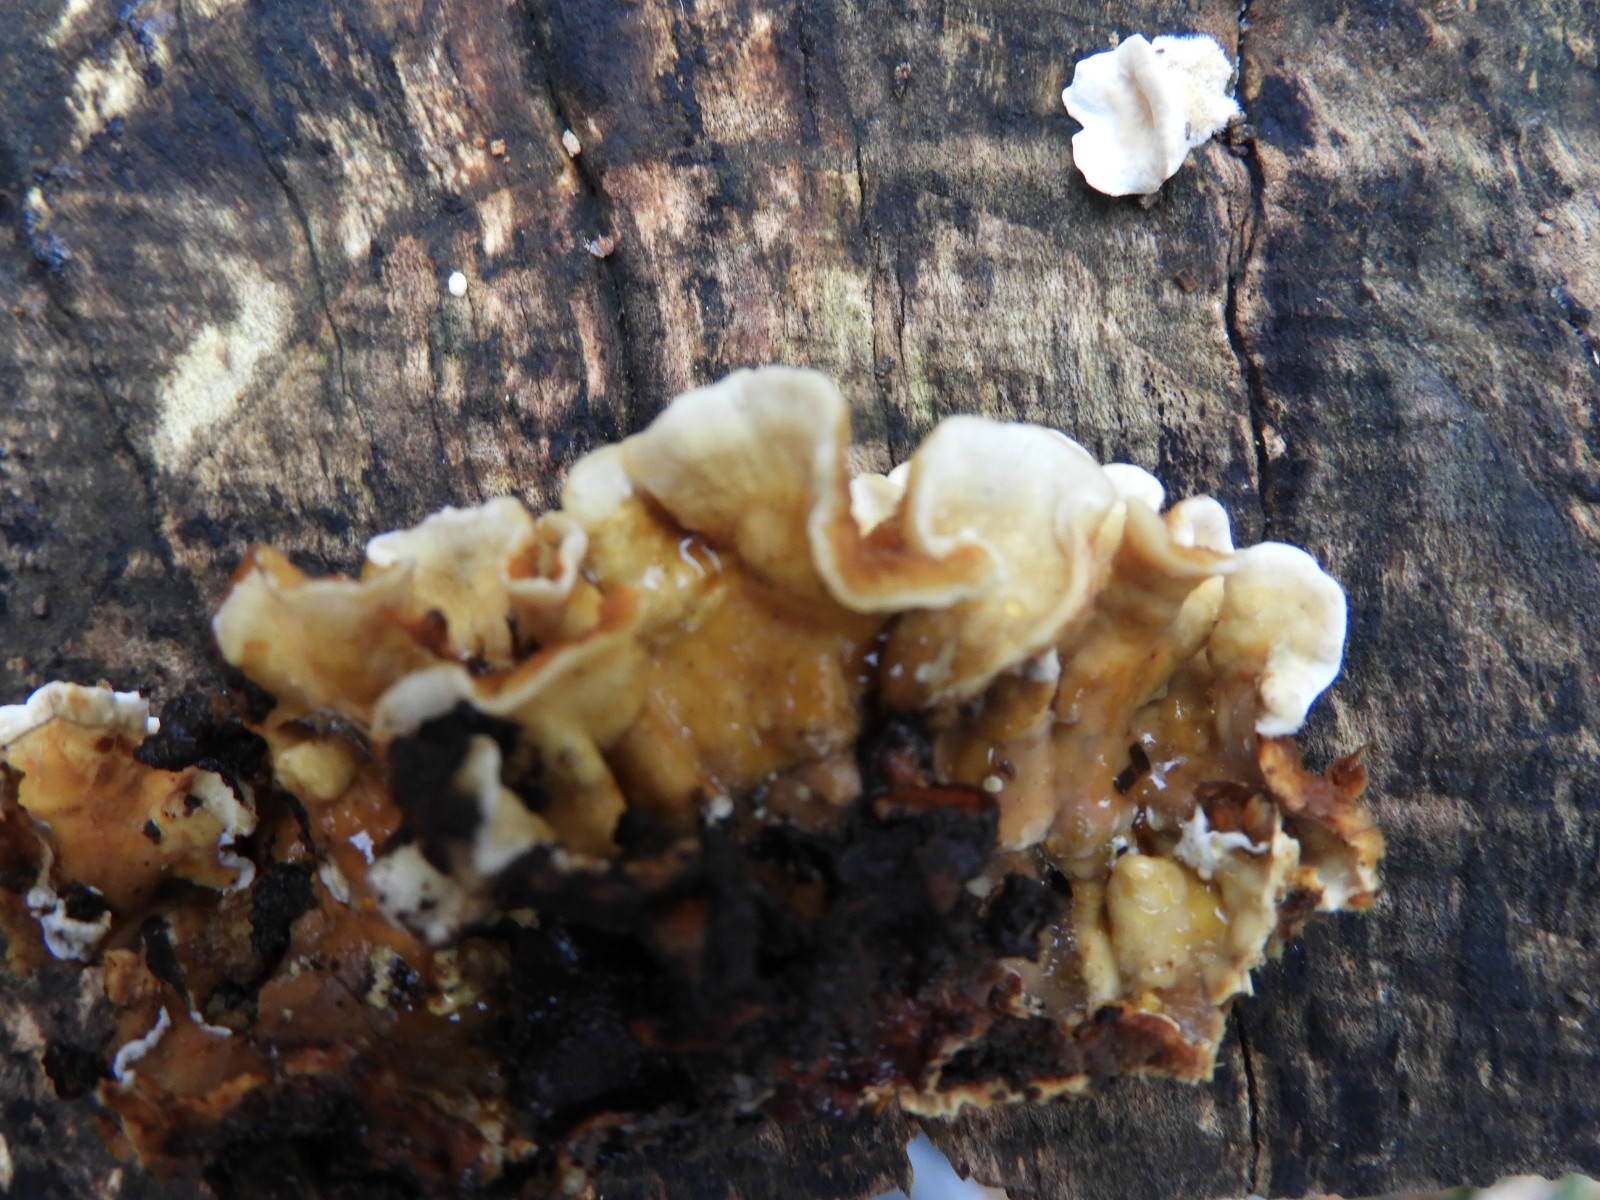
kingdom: Fungi
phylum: Basidiomycota
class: Agaricomycetes
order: Russulales
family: Stereaceae
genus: Stereum
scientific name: Stereum hirsutum
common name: håret lædersvamp
